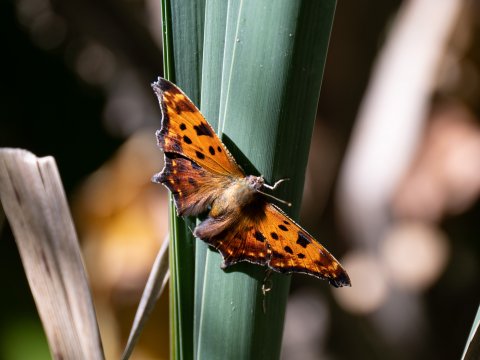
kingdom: Animalia
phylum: Arthropoda
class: Insecta
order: Lepidoptera
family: Nymphalidae
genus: Polygonia
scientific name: Polygonia comma
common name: Eastern Comma
